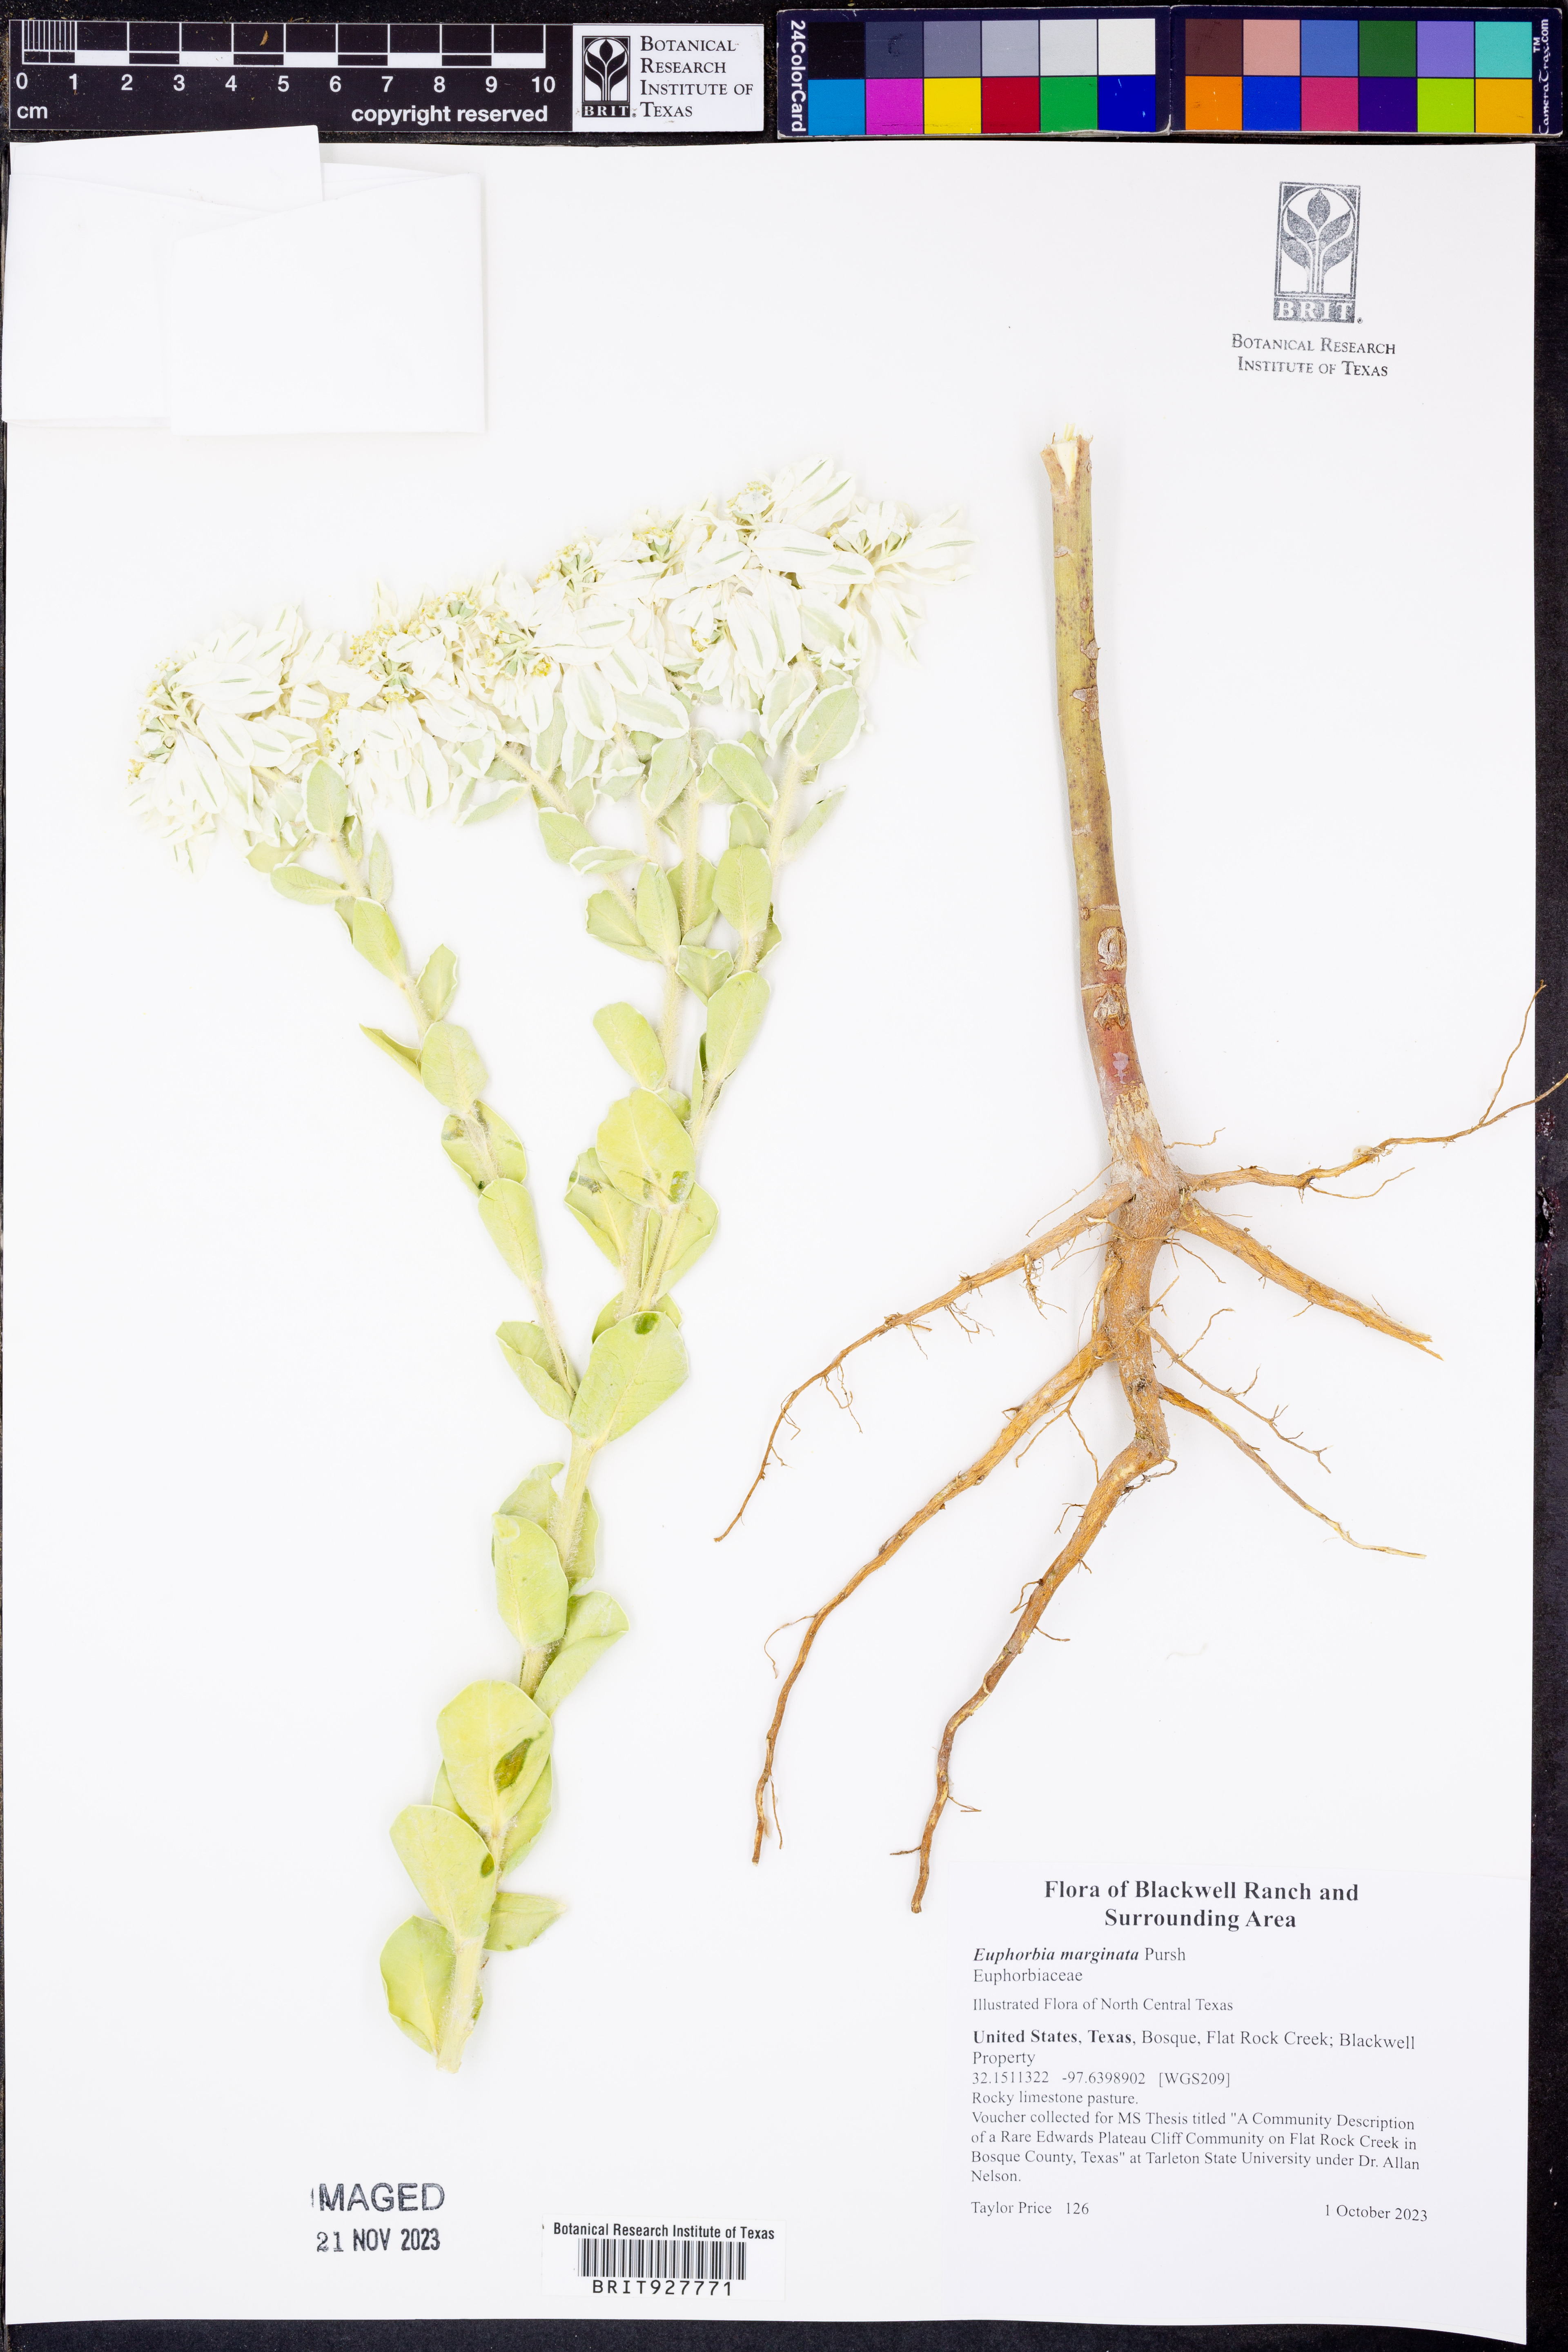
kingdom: Plantae
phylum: Tracheophyta
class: Magnoliopsida
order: Malpighiales
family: Euphorbiaceae
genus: Euphorbia
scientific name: Euphorbia marginata
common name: Ghostweed
